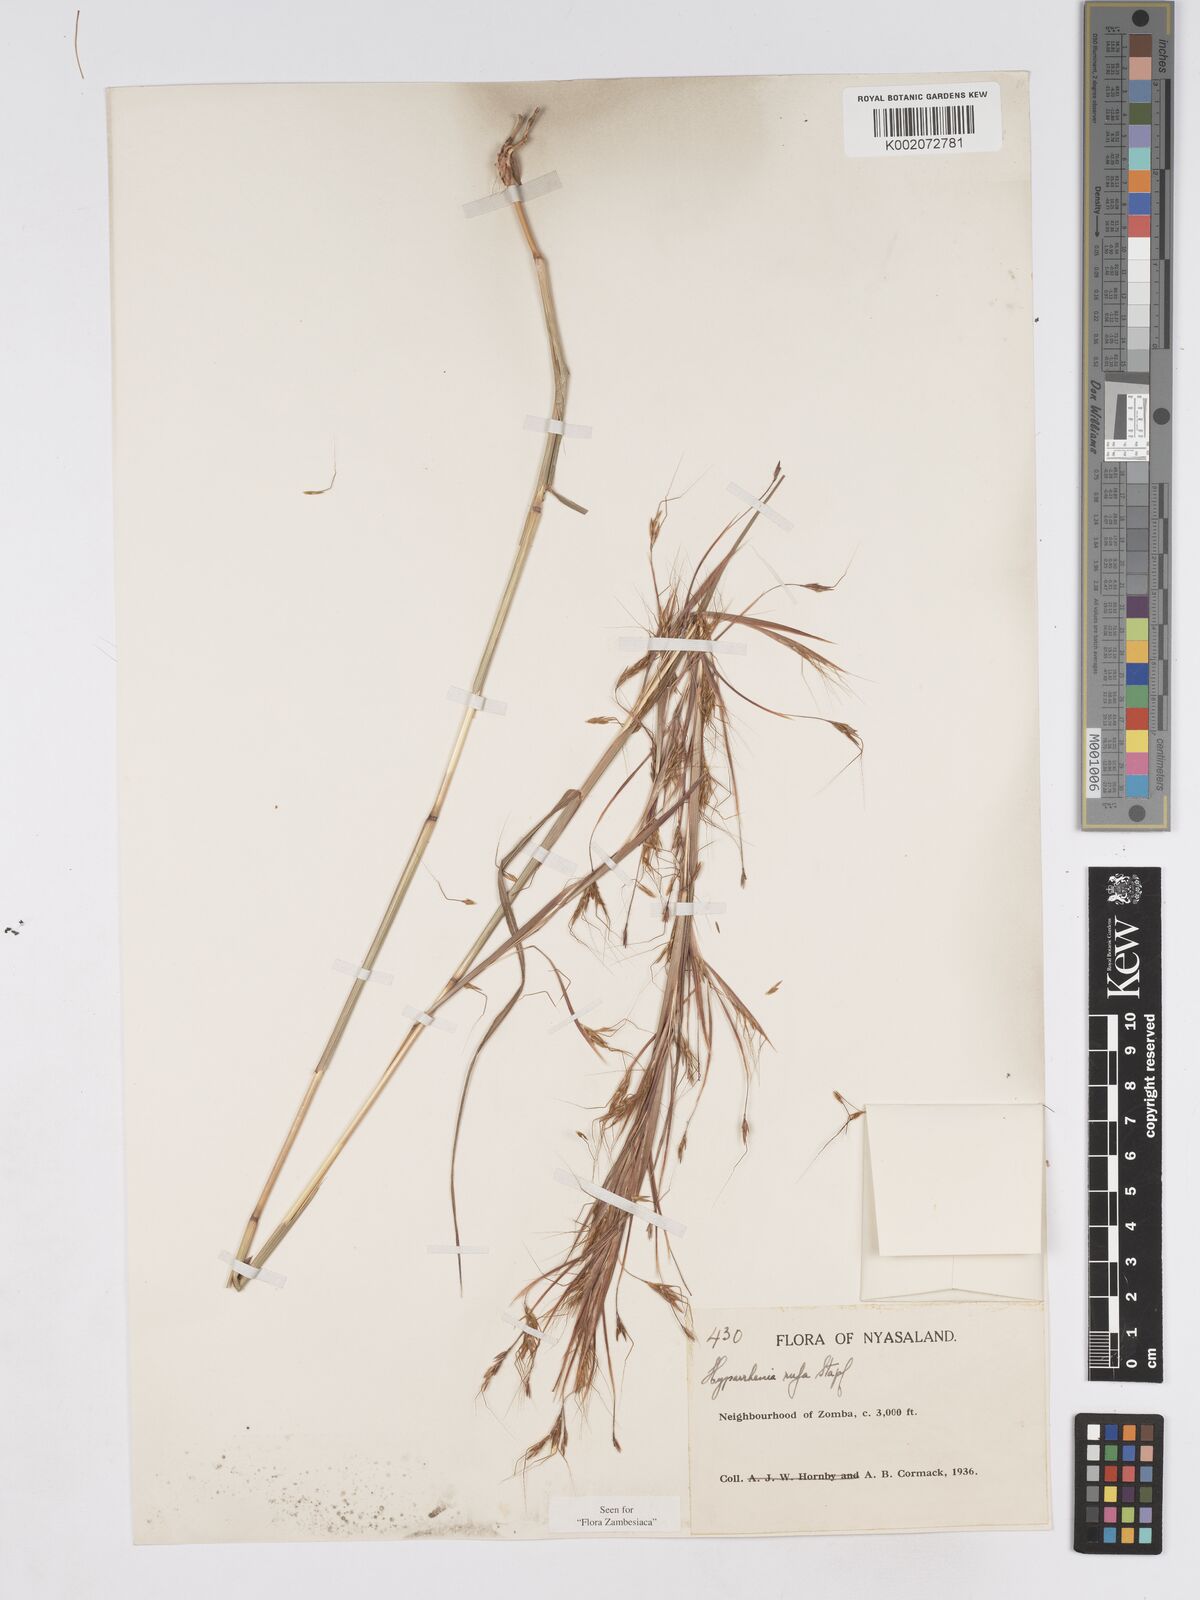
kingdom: Plantae
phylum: Tracheophyta
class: Liliopsida
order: Poales
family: Poaceae
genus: Hyparrhenia
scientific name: Hyparrhenia rufa
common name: Jaraguagrass
